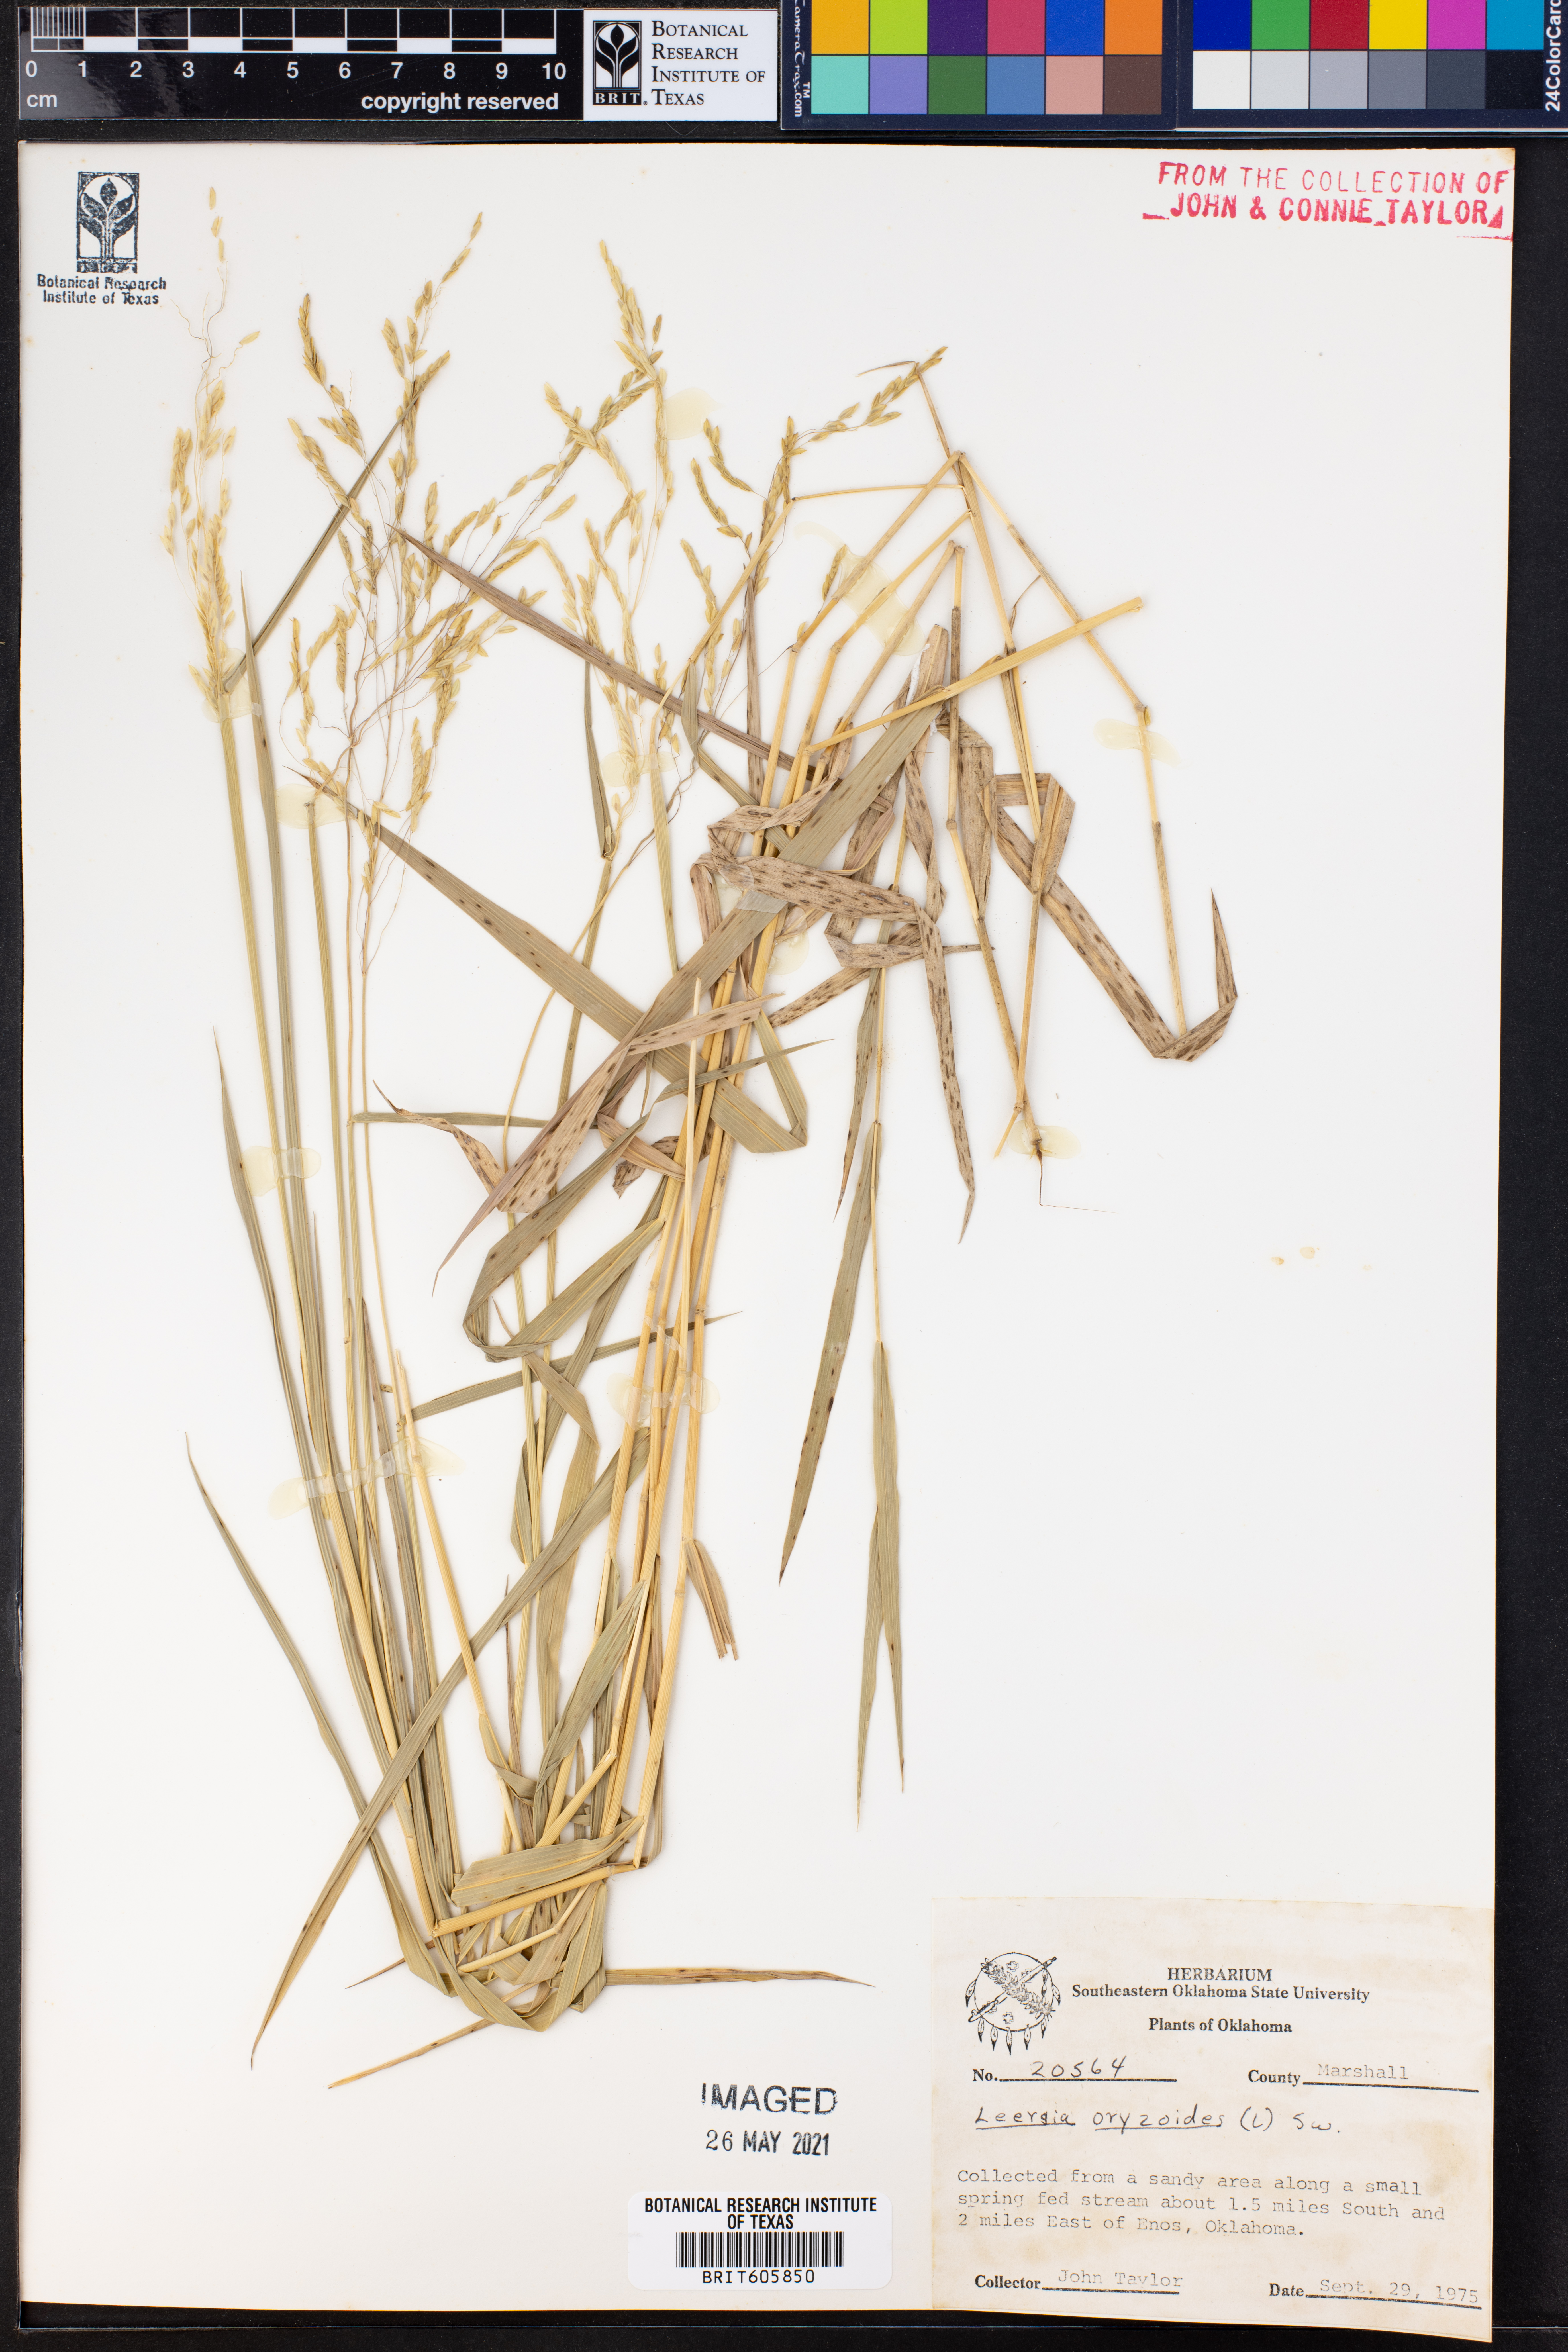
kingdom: Plantae
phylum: Tracheophyta
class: Liliopsida
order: Poales
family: Poaceae
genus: Leersia
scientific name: Leersia oryzoides
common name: Cut-grass
